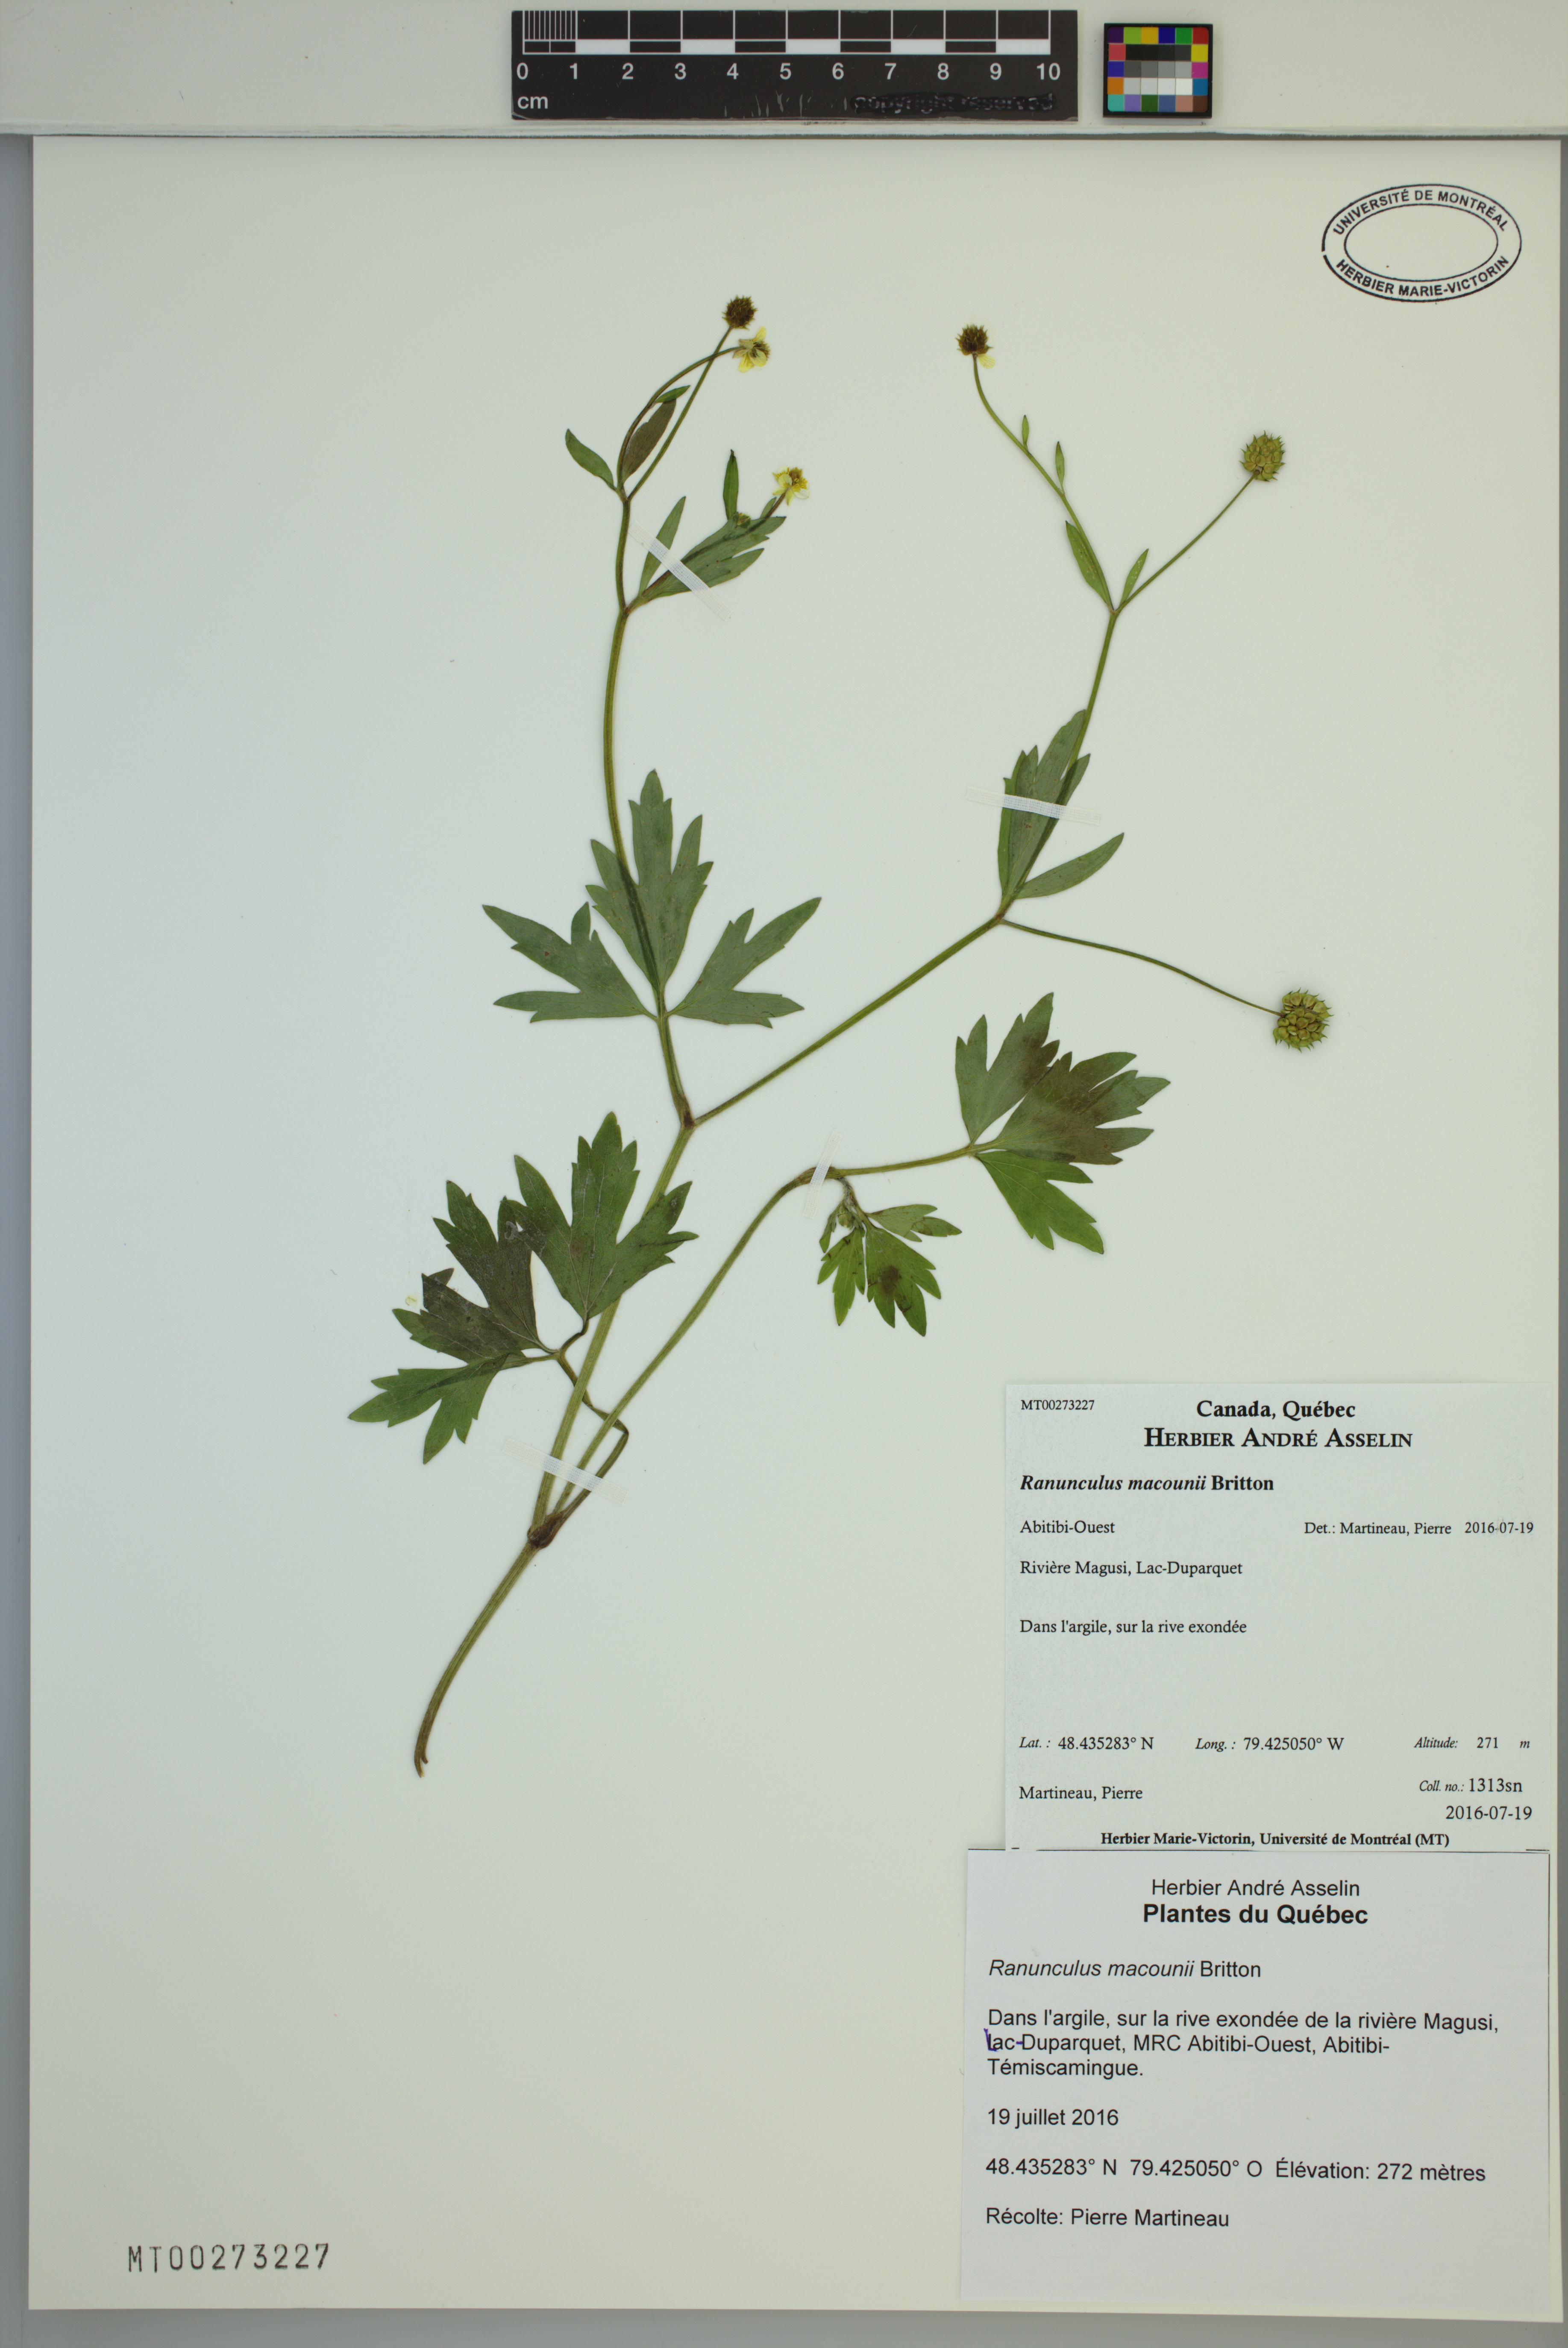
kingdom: Plantae
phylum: Tracheophyta
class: Magnoliopsida
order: Ranunculales
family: Ranunculaceae
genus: Ranunculus
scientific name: Ranunculus macounii
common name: Macoun's buttercup
